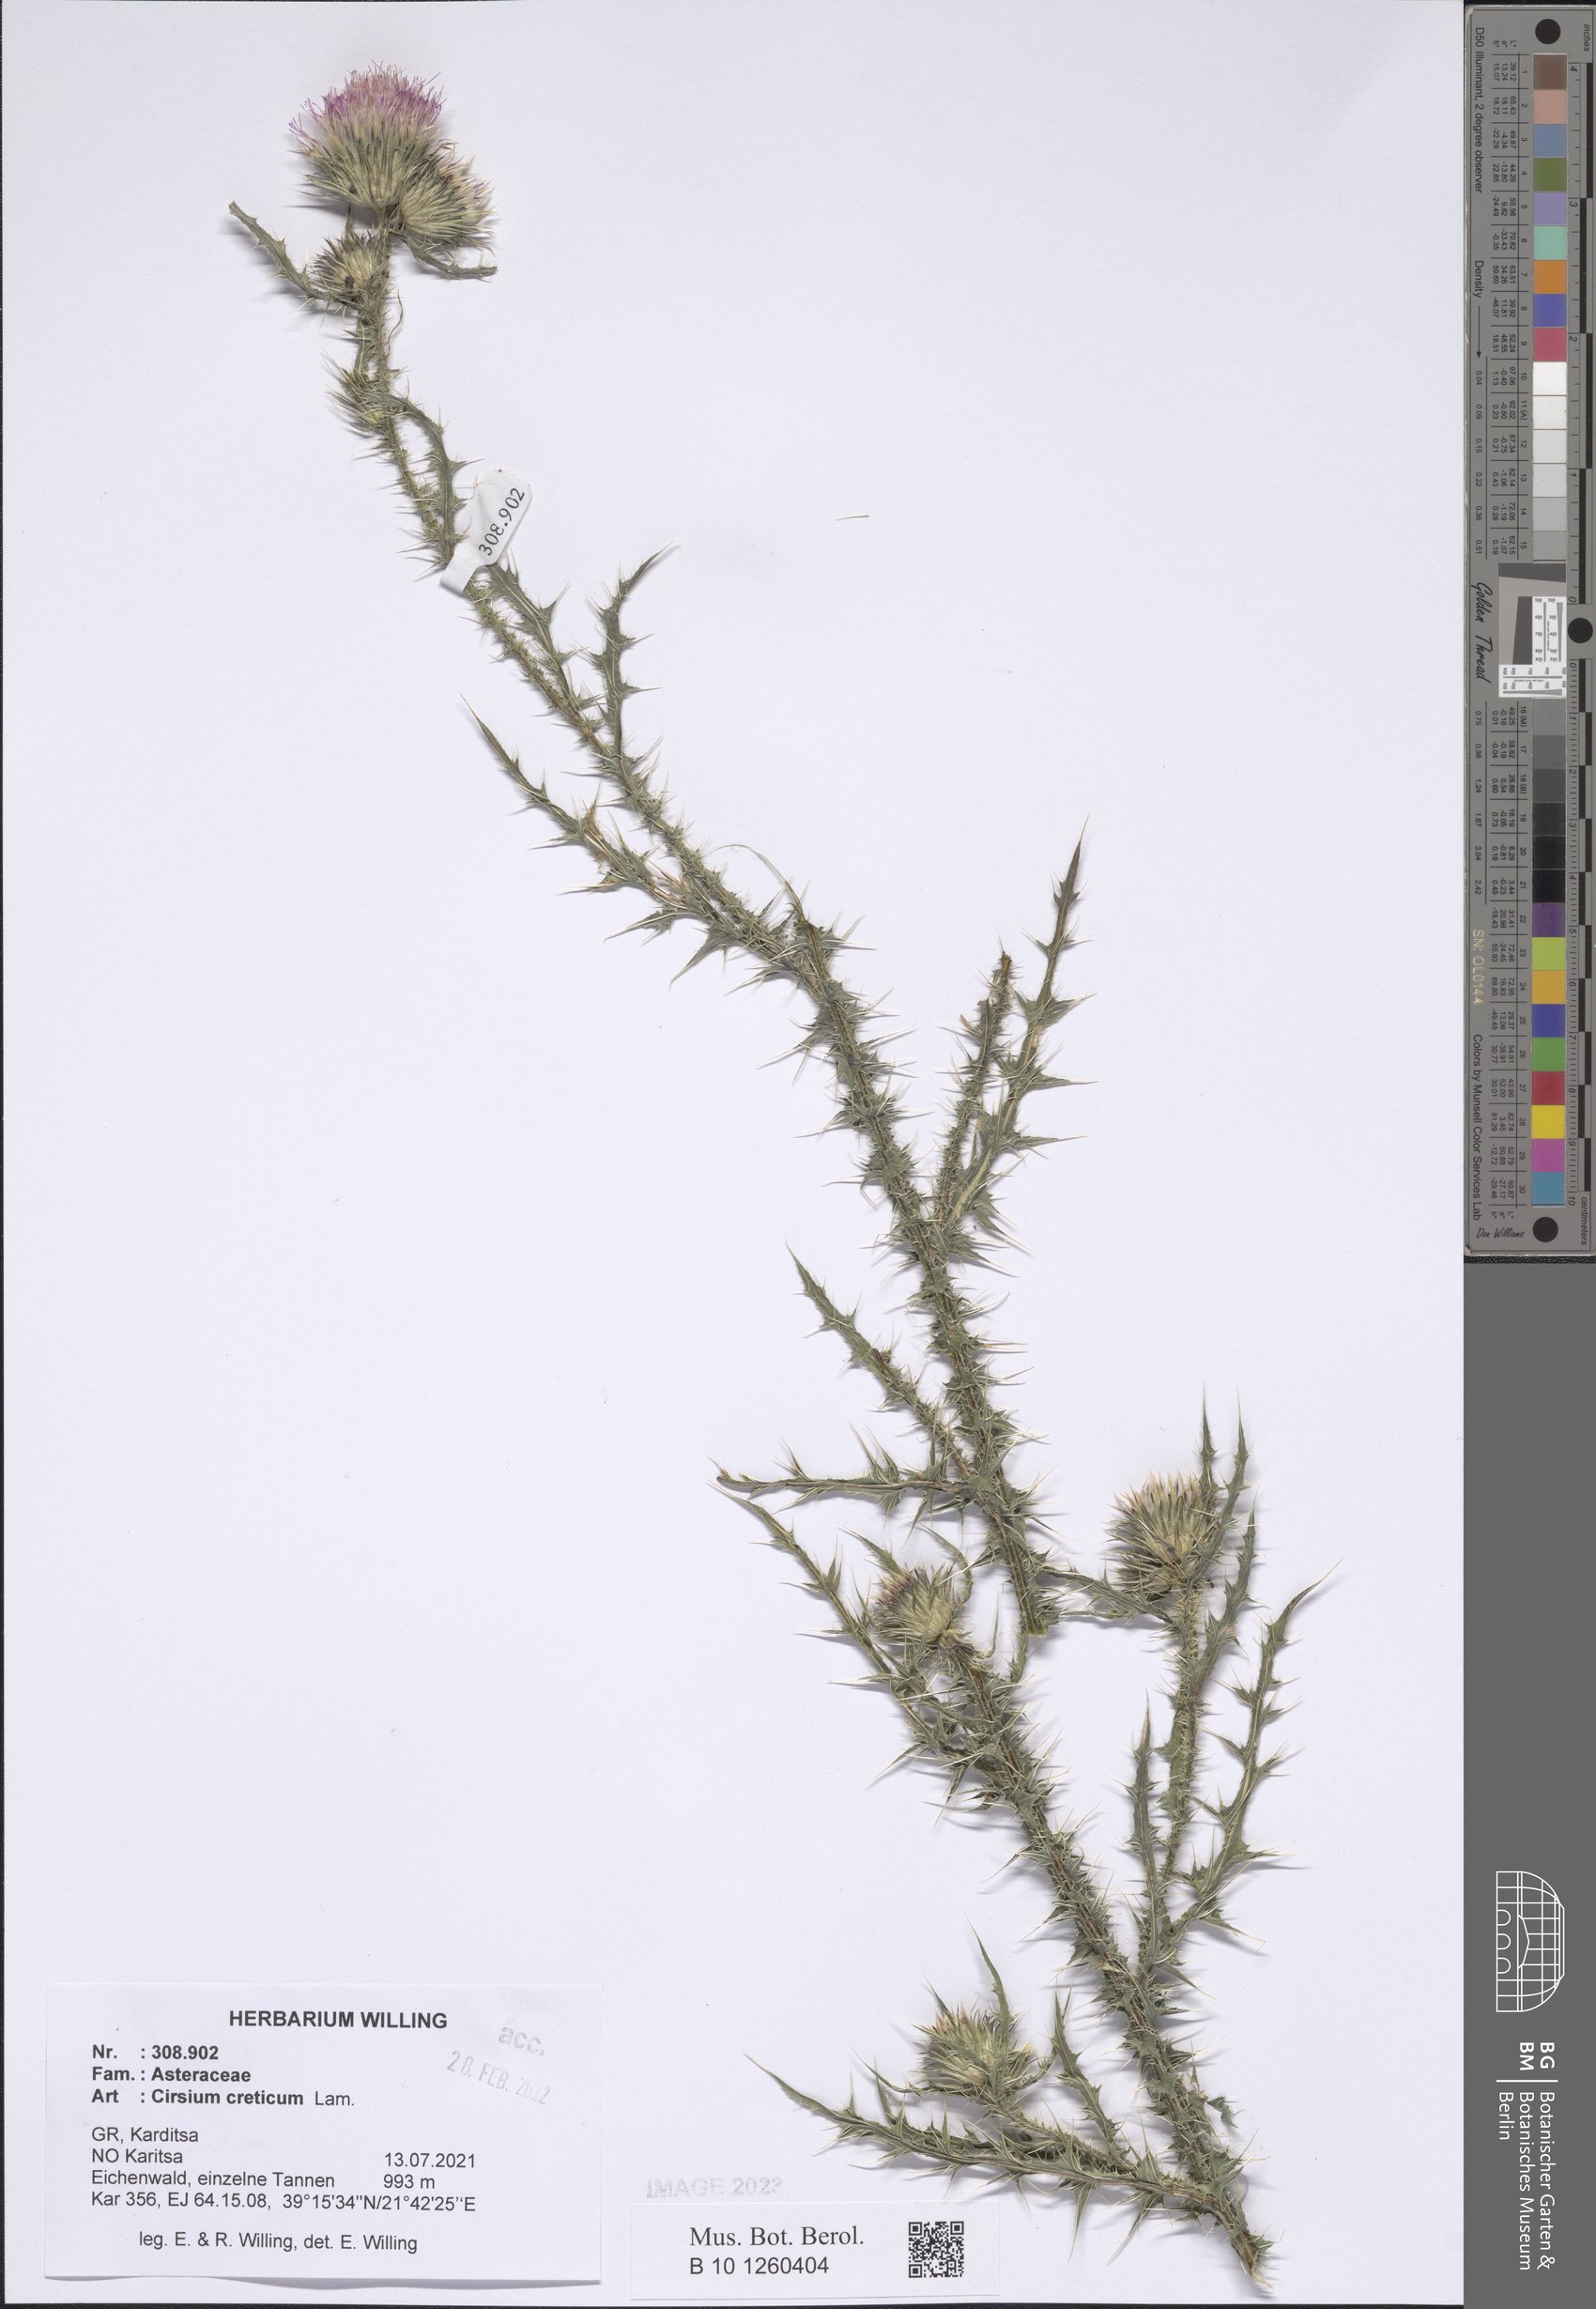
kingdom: Plantae
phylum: Tracheophyta
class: Magnoliopsida
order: Asterales
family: Asteraceae
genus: Cirsium
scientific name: Cirsium creticum
